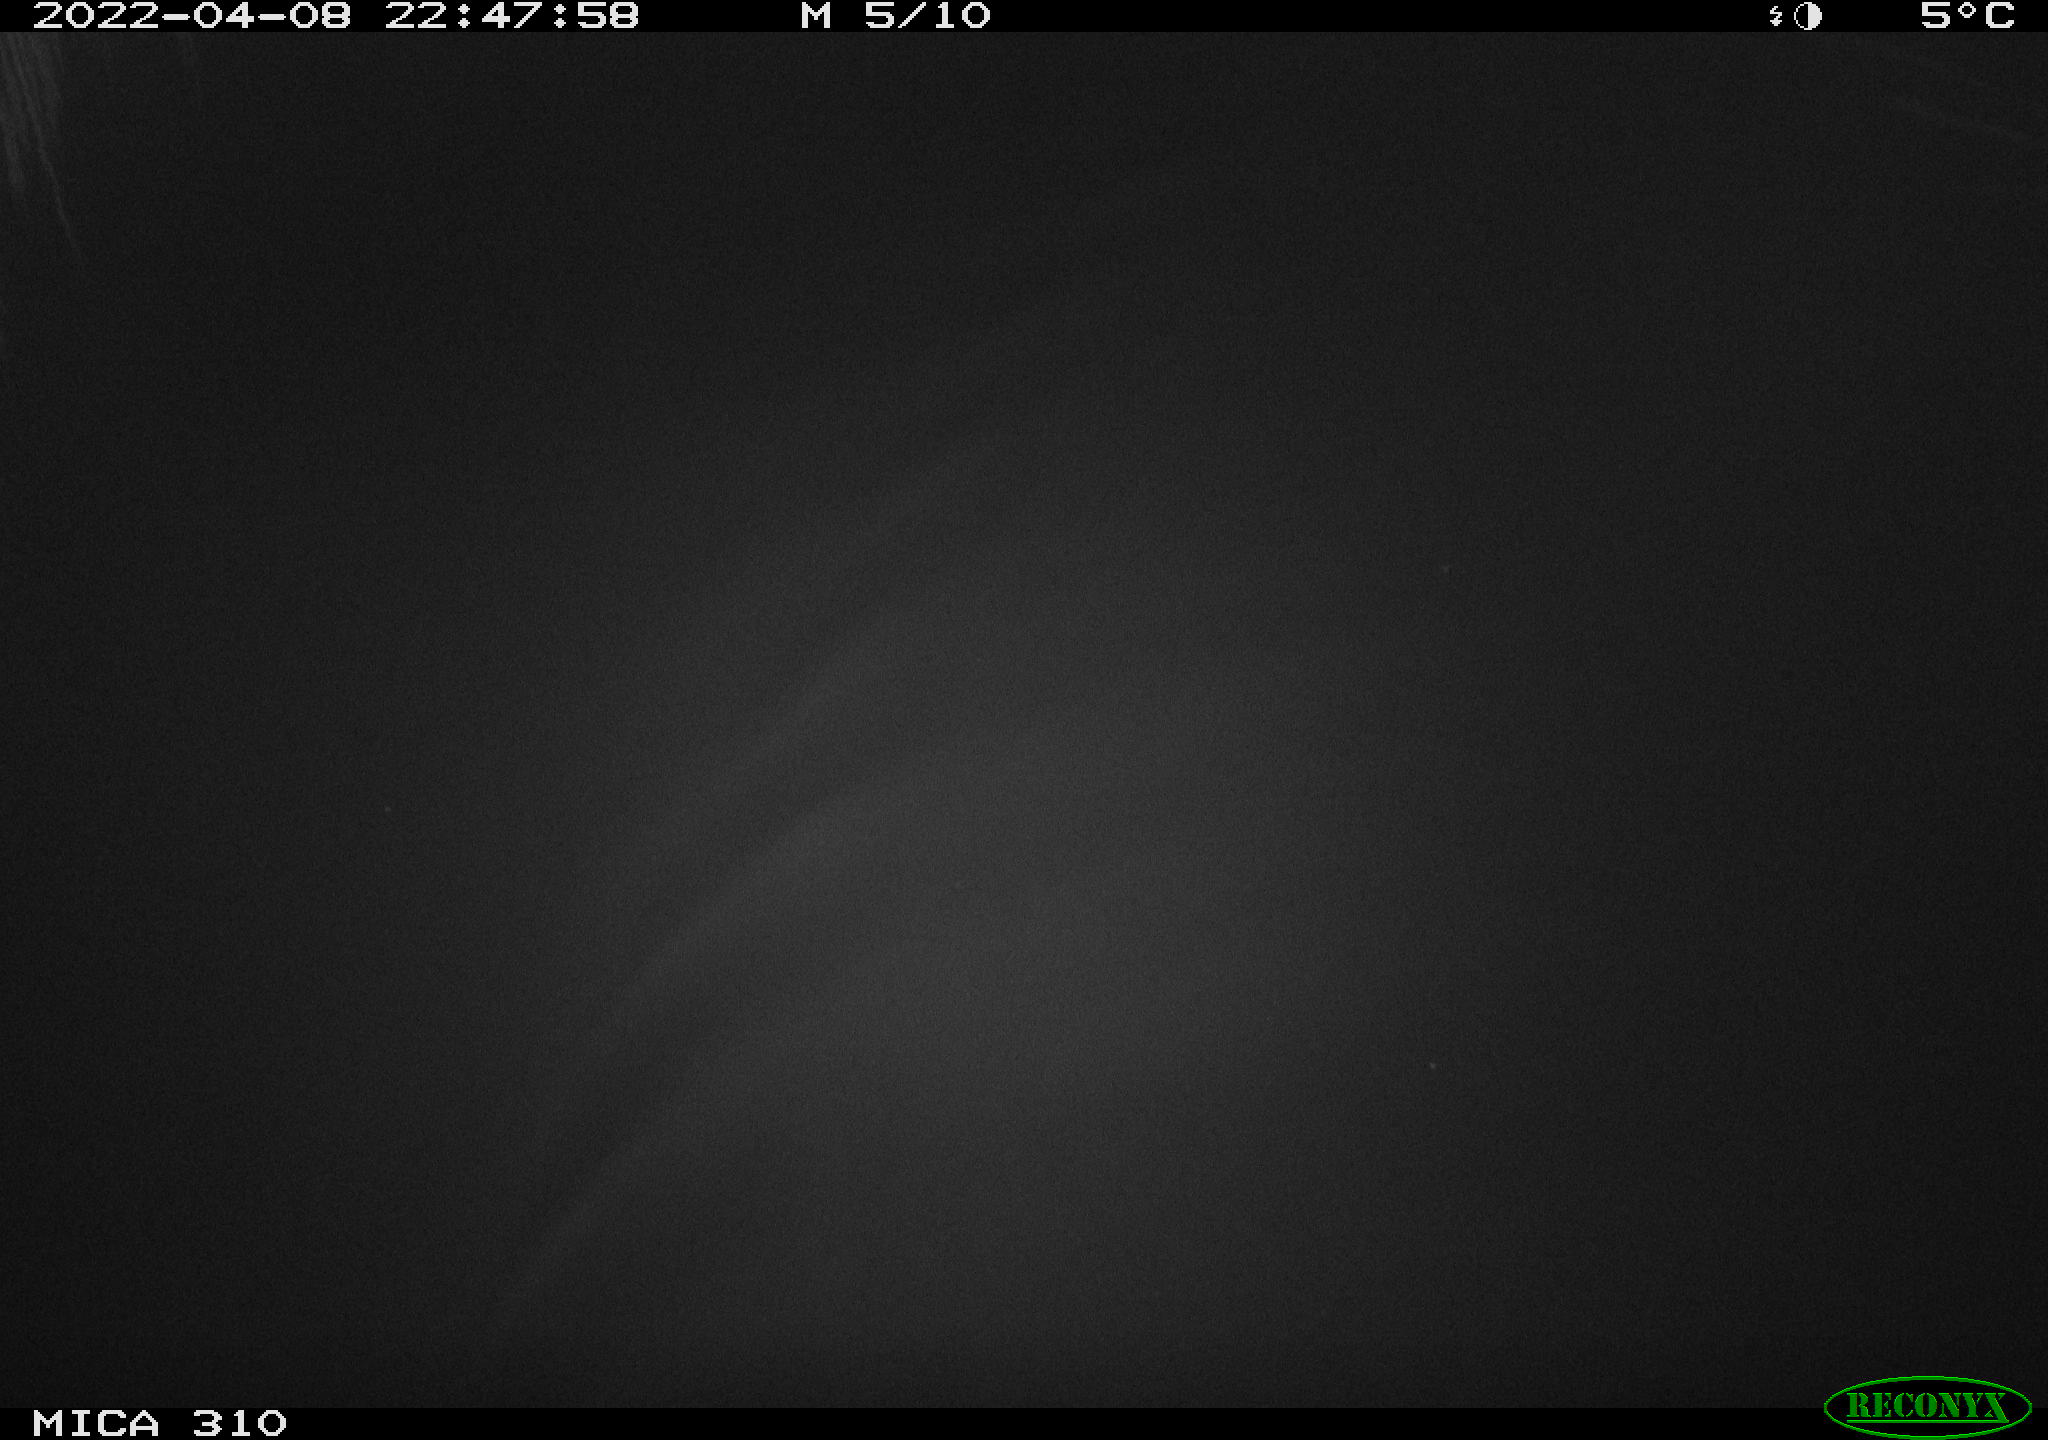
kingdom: Animalia
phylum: Chordata
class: Aves
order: Anseriformes
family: Anatidae
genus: Anas
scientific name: Anas platyrhynchos
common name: Mallard
